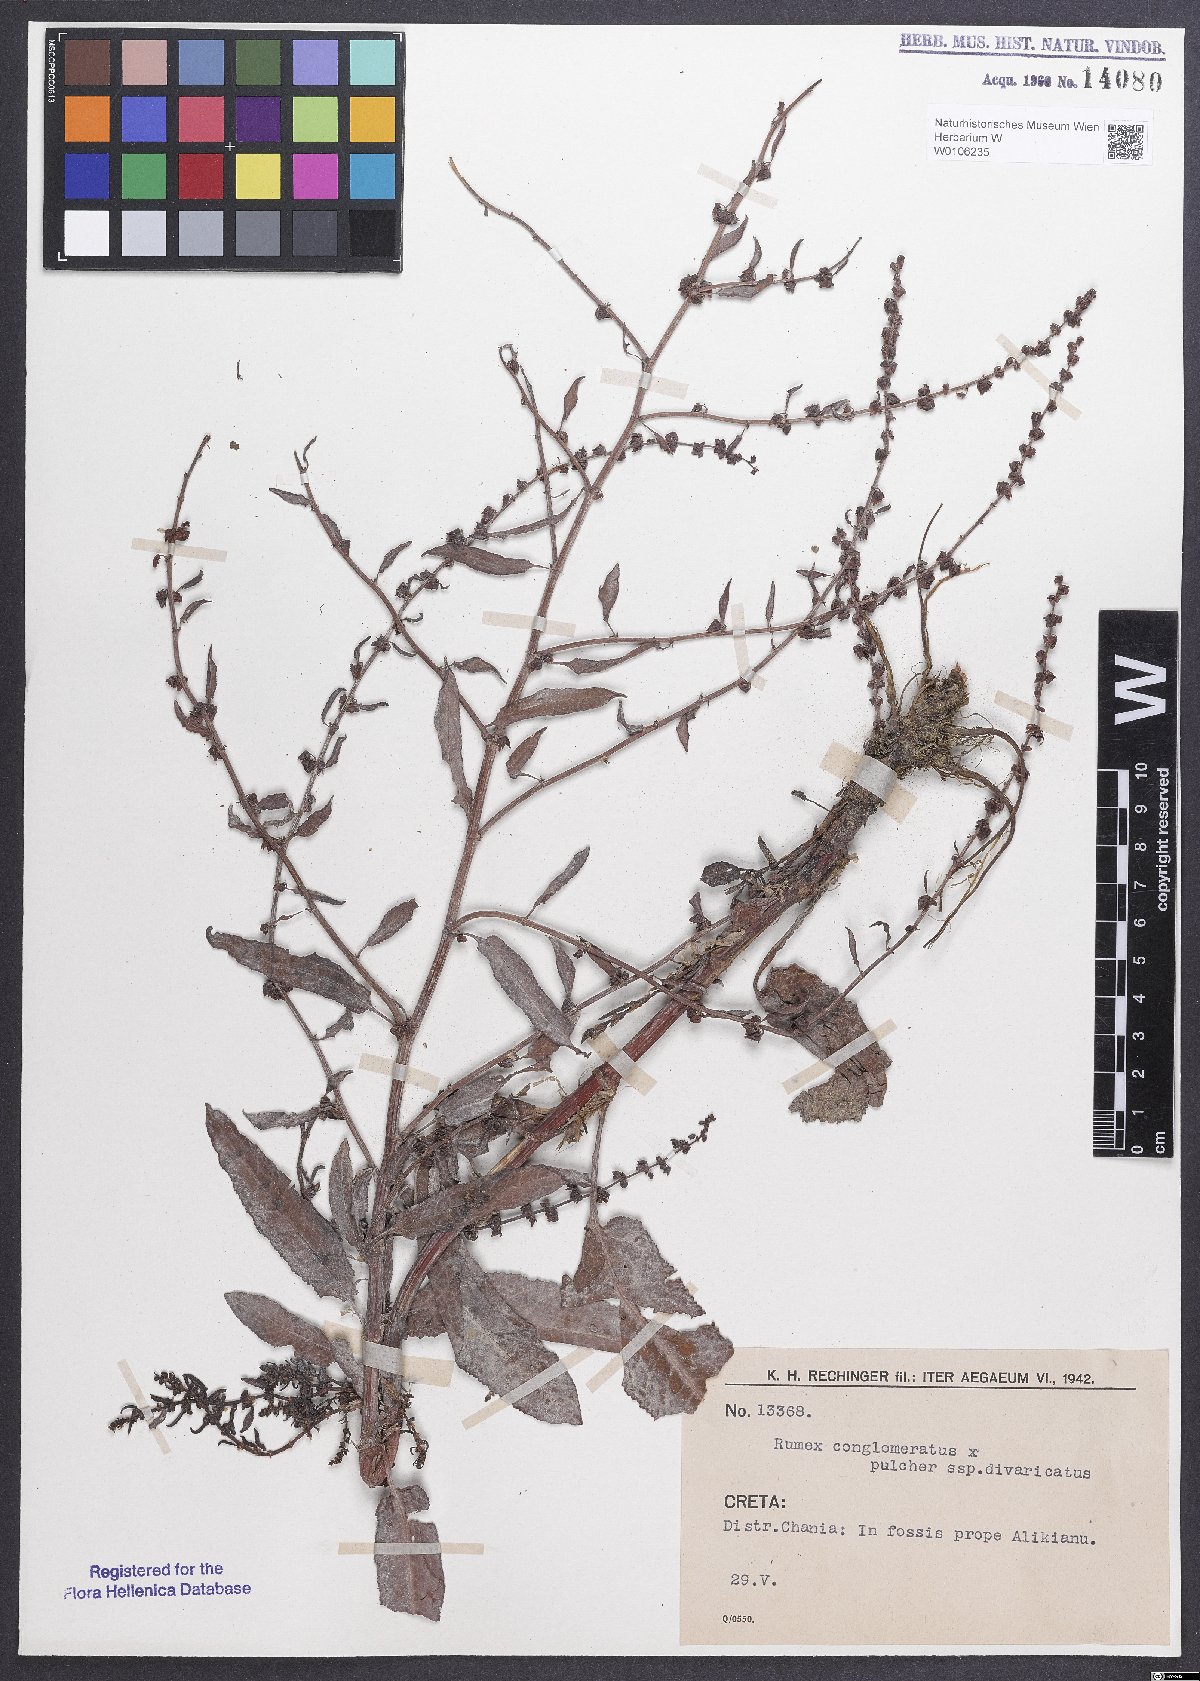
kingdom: Plantae
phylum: Tracheophyta
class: Magnoliopsida
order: Caryophyllales
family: Polygonaceae
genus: Rumex
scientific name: Rumex
